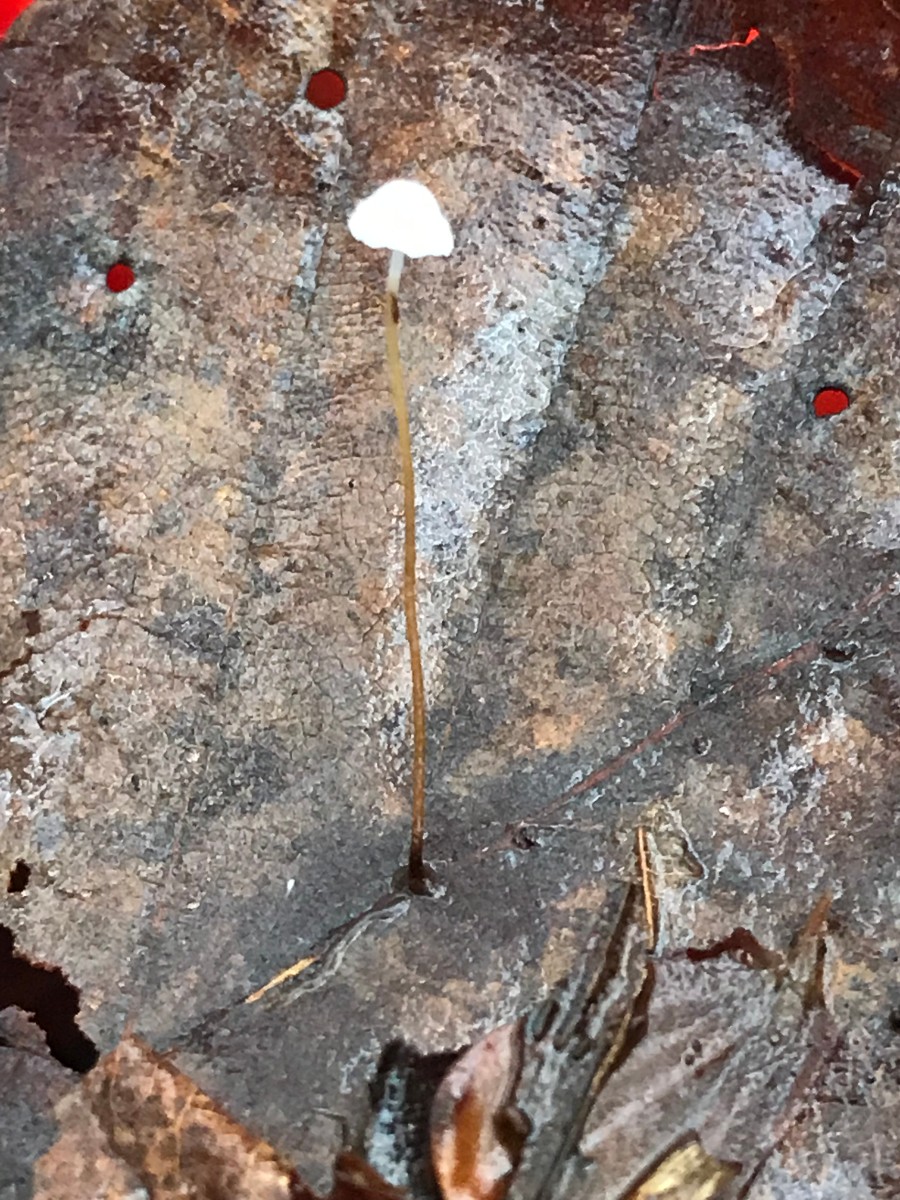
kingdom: Fungi
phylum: Basidiomycota
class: Agaricomycetes
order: Agaricales
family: Physalacriaceae
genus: Rhizomarasmius
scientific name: Rhizomarasmius setosus
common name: bøgeblads-bruskhat
